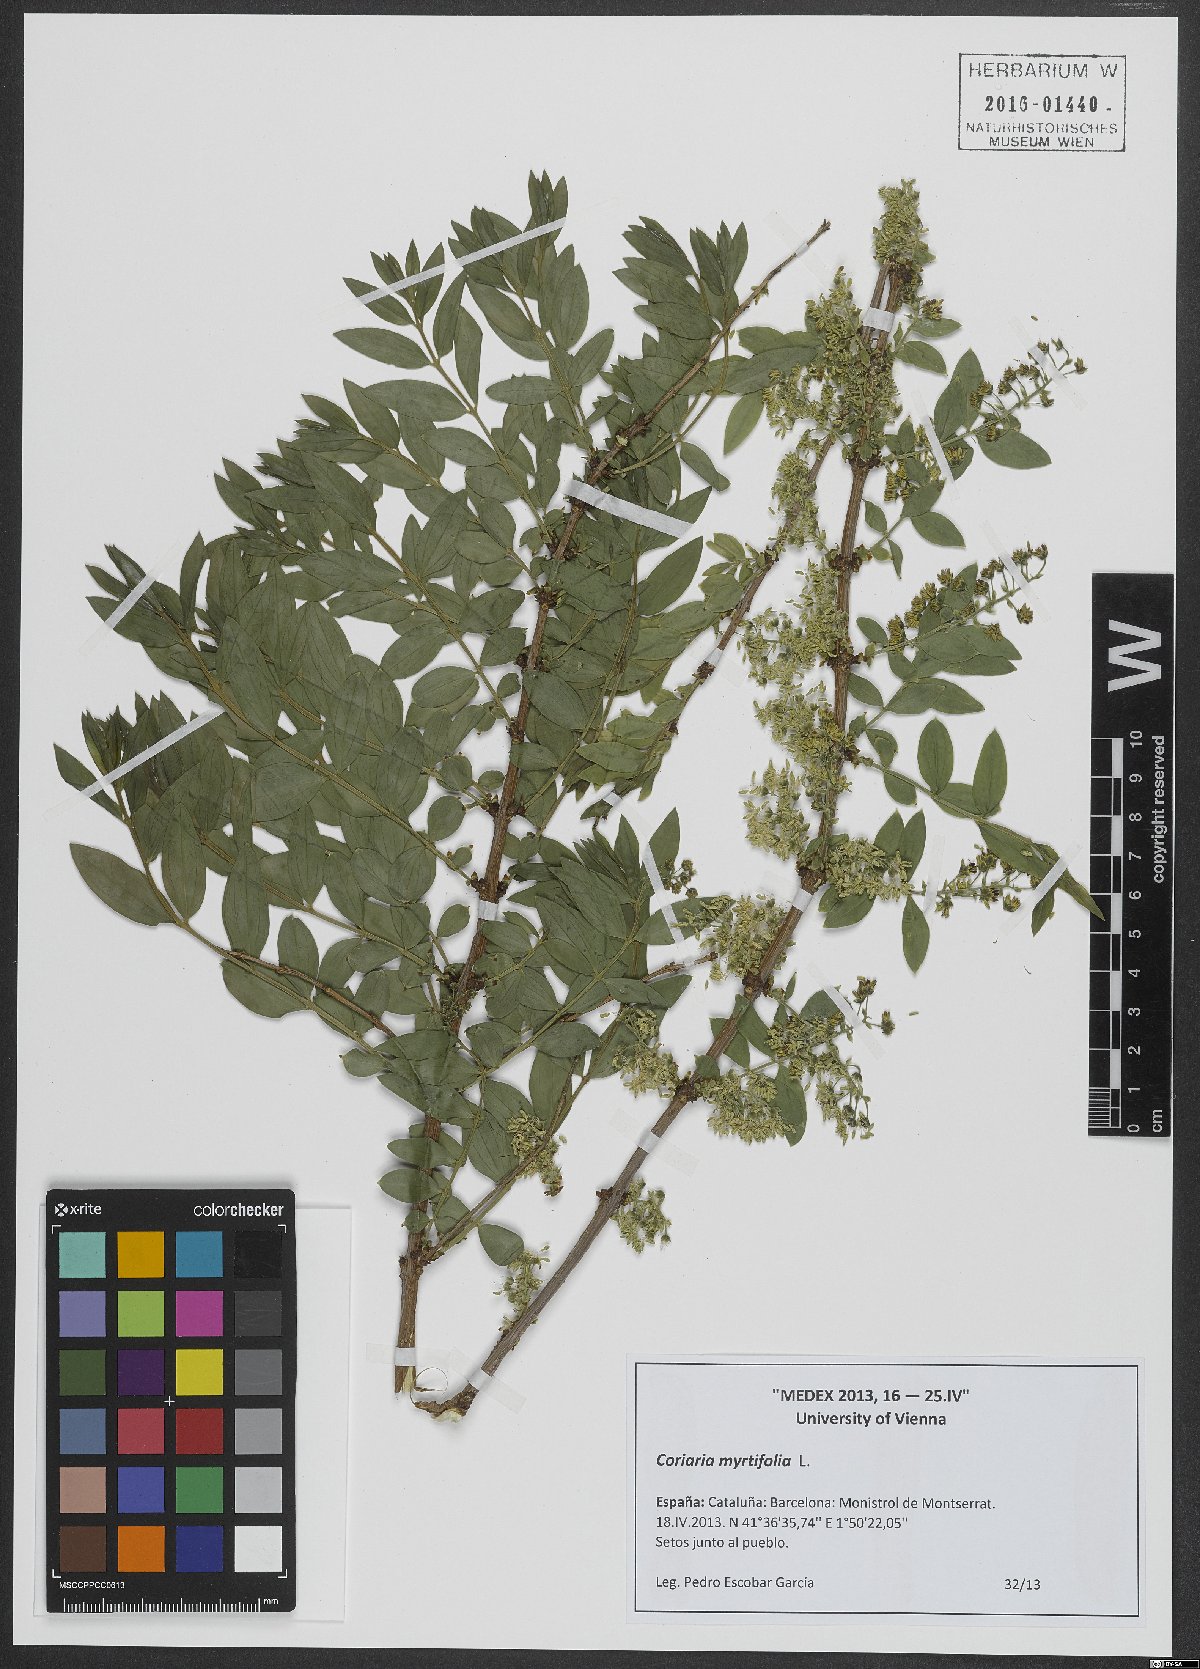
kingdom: Plantae
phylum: Tracheophyta
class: Magnoliopsida
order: Cucurbitales
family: Coriariaceae
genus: Coriaria
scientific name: Coriaria myrtifolia
